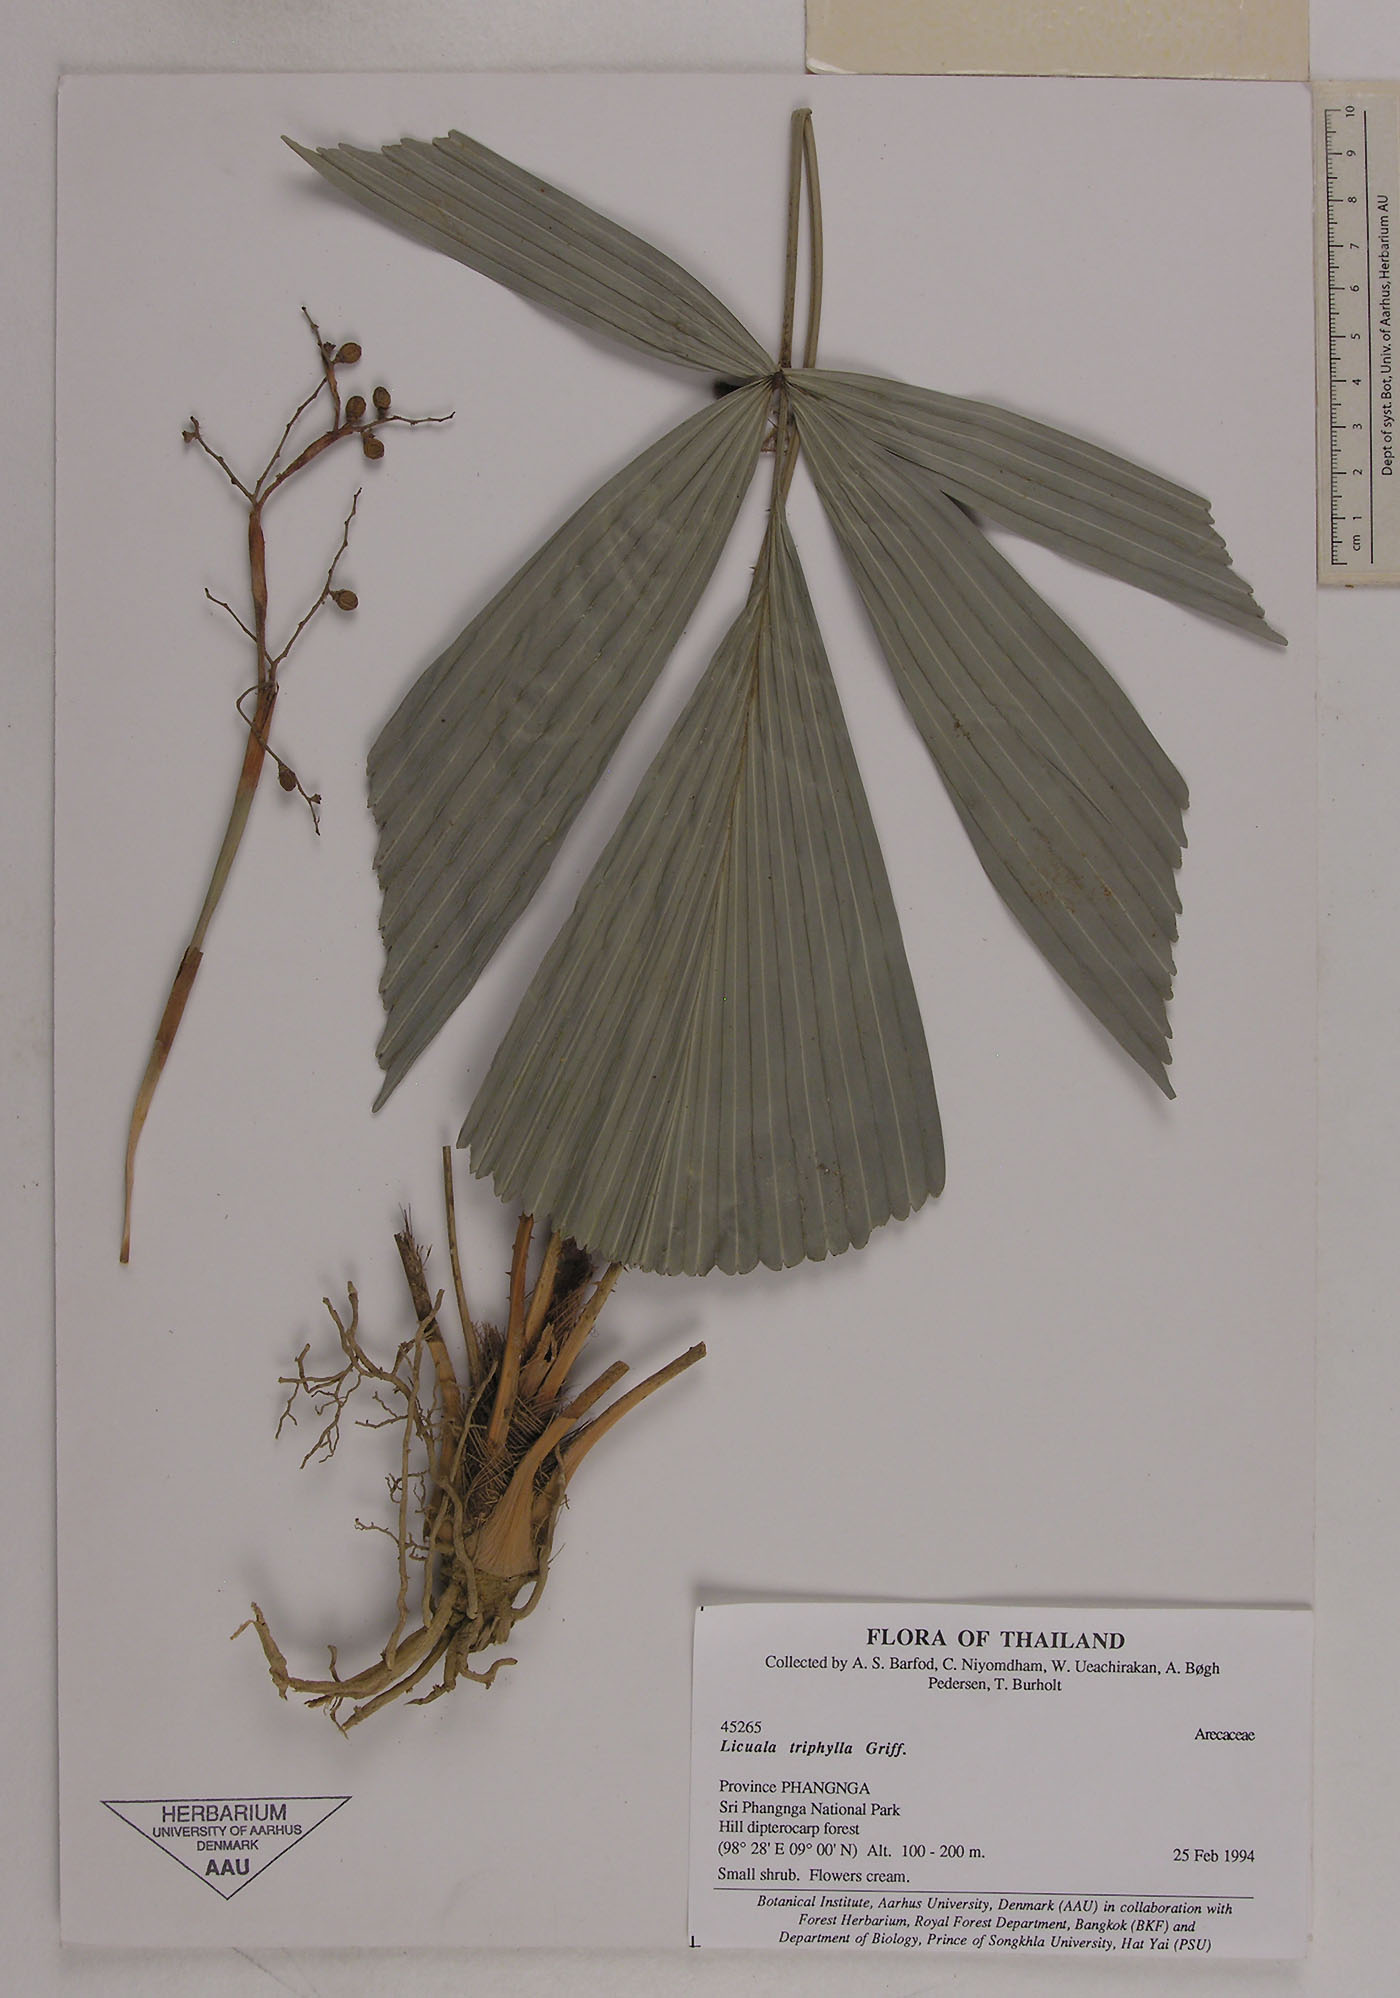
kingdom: Plantae
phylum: Tracheophyta
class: Liliopsida
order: Arecales
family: Arecaceae
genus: Licuala
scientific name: Licuala triphylla
